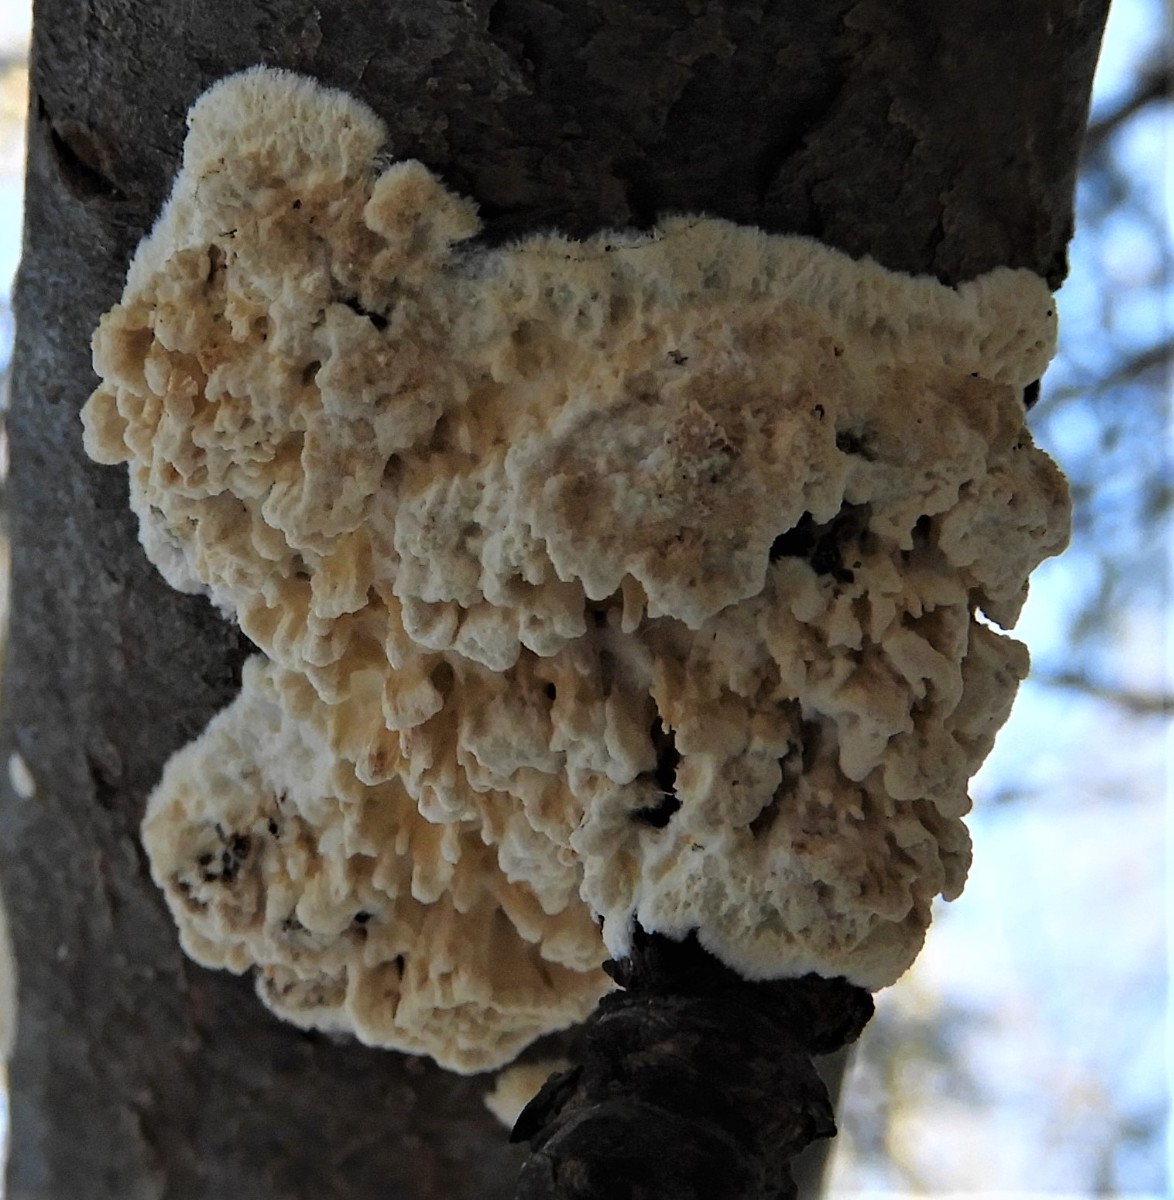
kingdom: Fungi
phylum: Basidiomycota
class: Agaricomycetes
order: Hymenochaetales
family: Schizoporaceae
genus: Xylodon
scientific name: Xylodon radula
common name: grovtandet kalkskind
